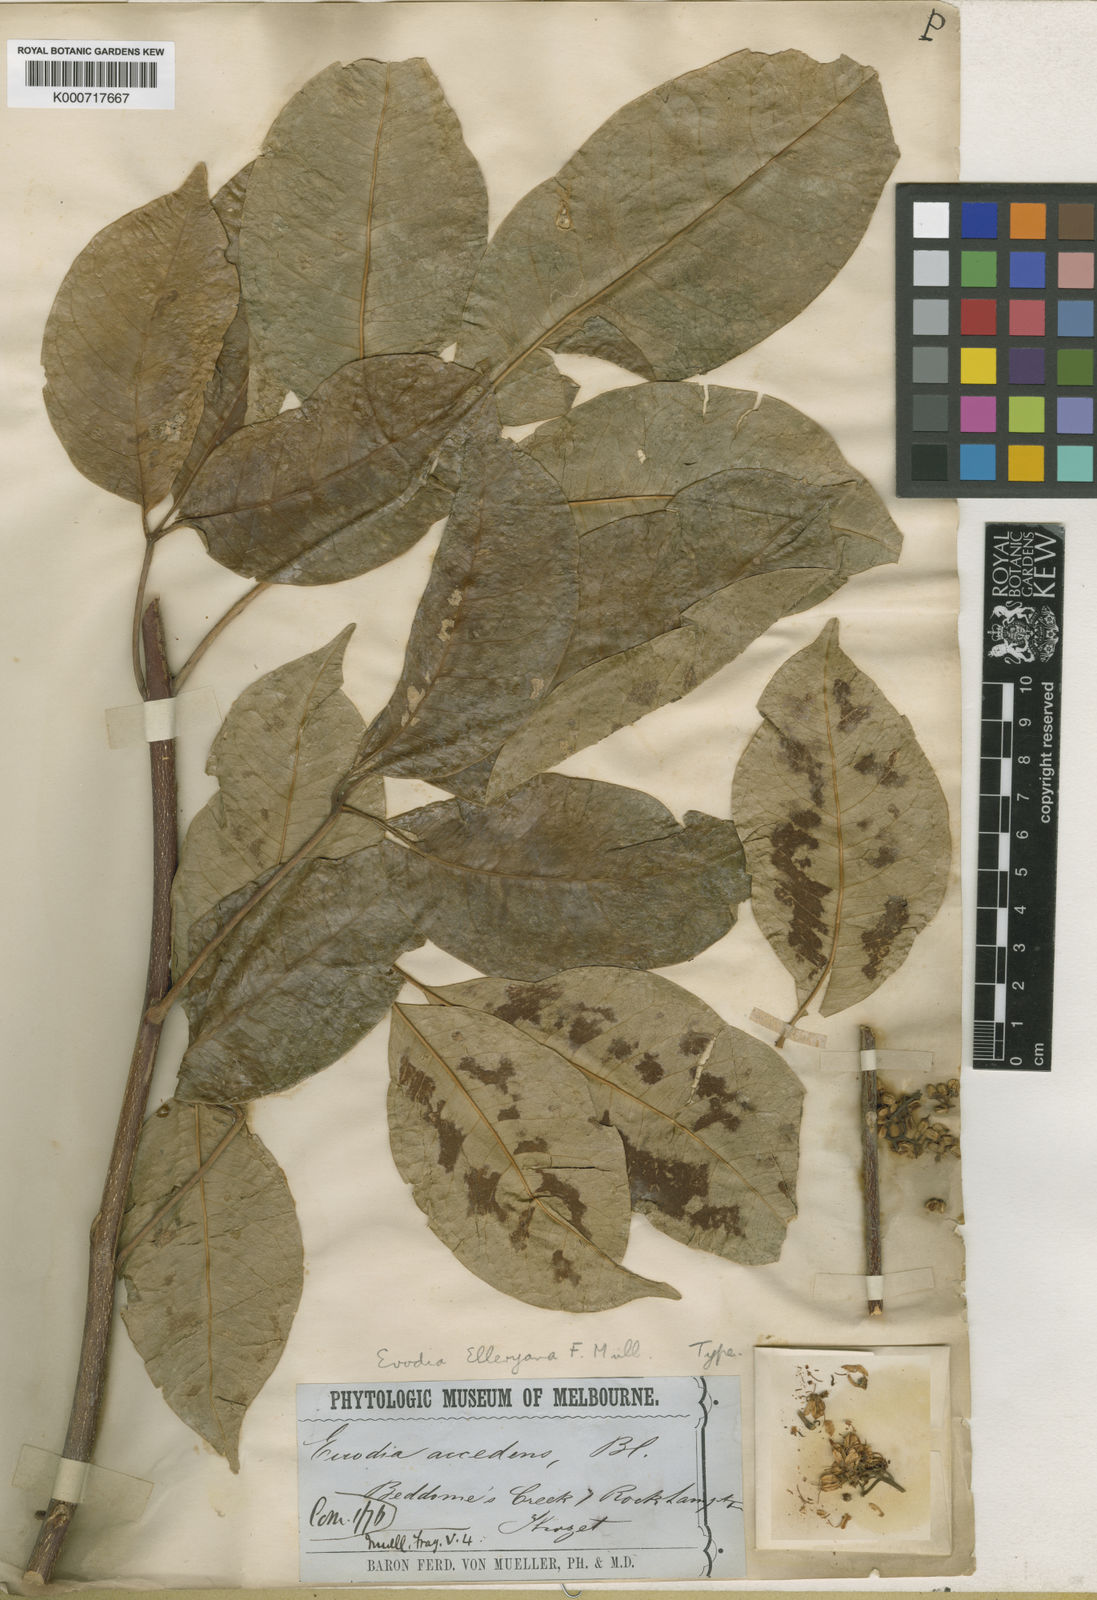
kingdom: Plantae
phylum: Tracheophyta
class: Magnoliopsida
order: Sapindales
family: Rutaceae
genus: Melicope
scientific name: Melicope elleryana
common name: Pink euodia
